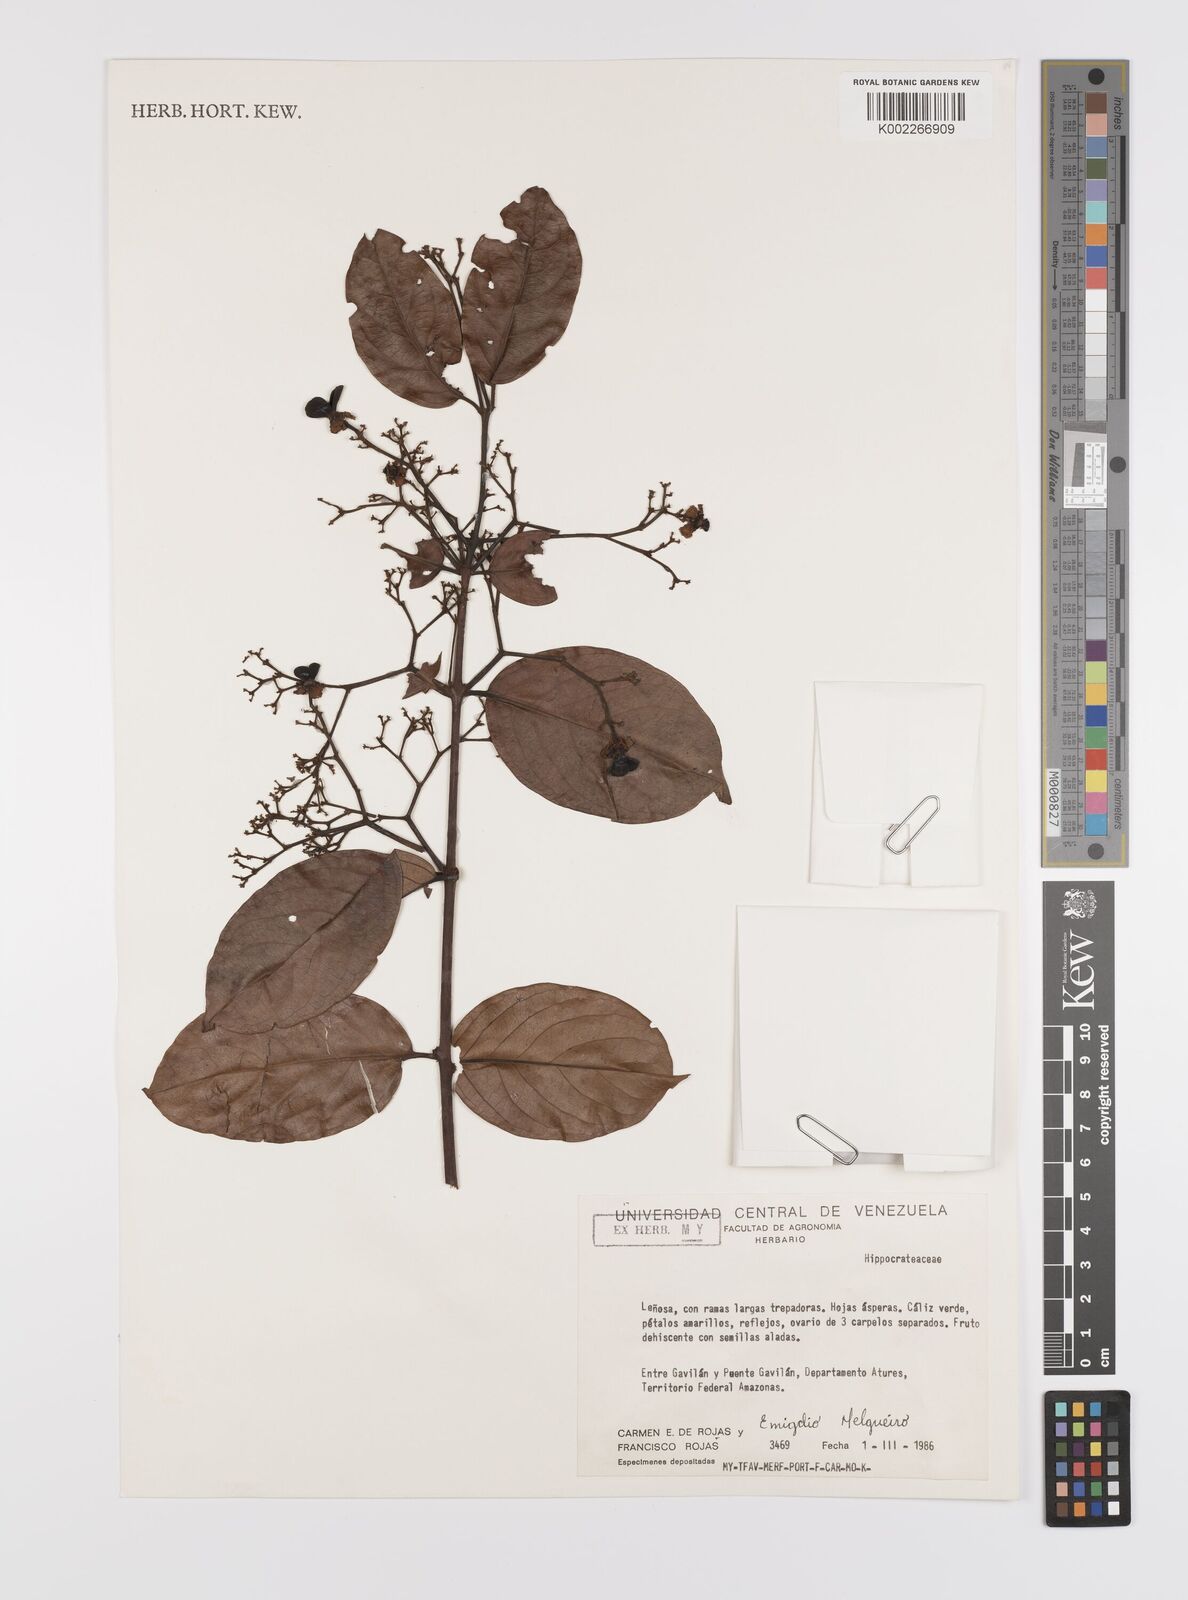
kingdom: Plantae
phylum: Tracheophyta
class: Magnoliopsida
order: Celastrales
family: Celastraceae
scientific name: Celastraceae
